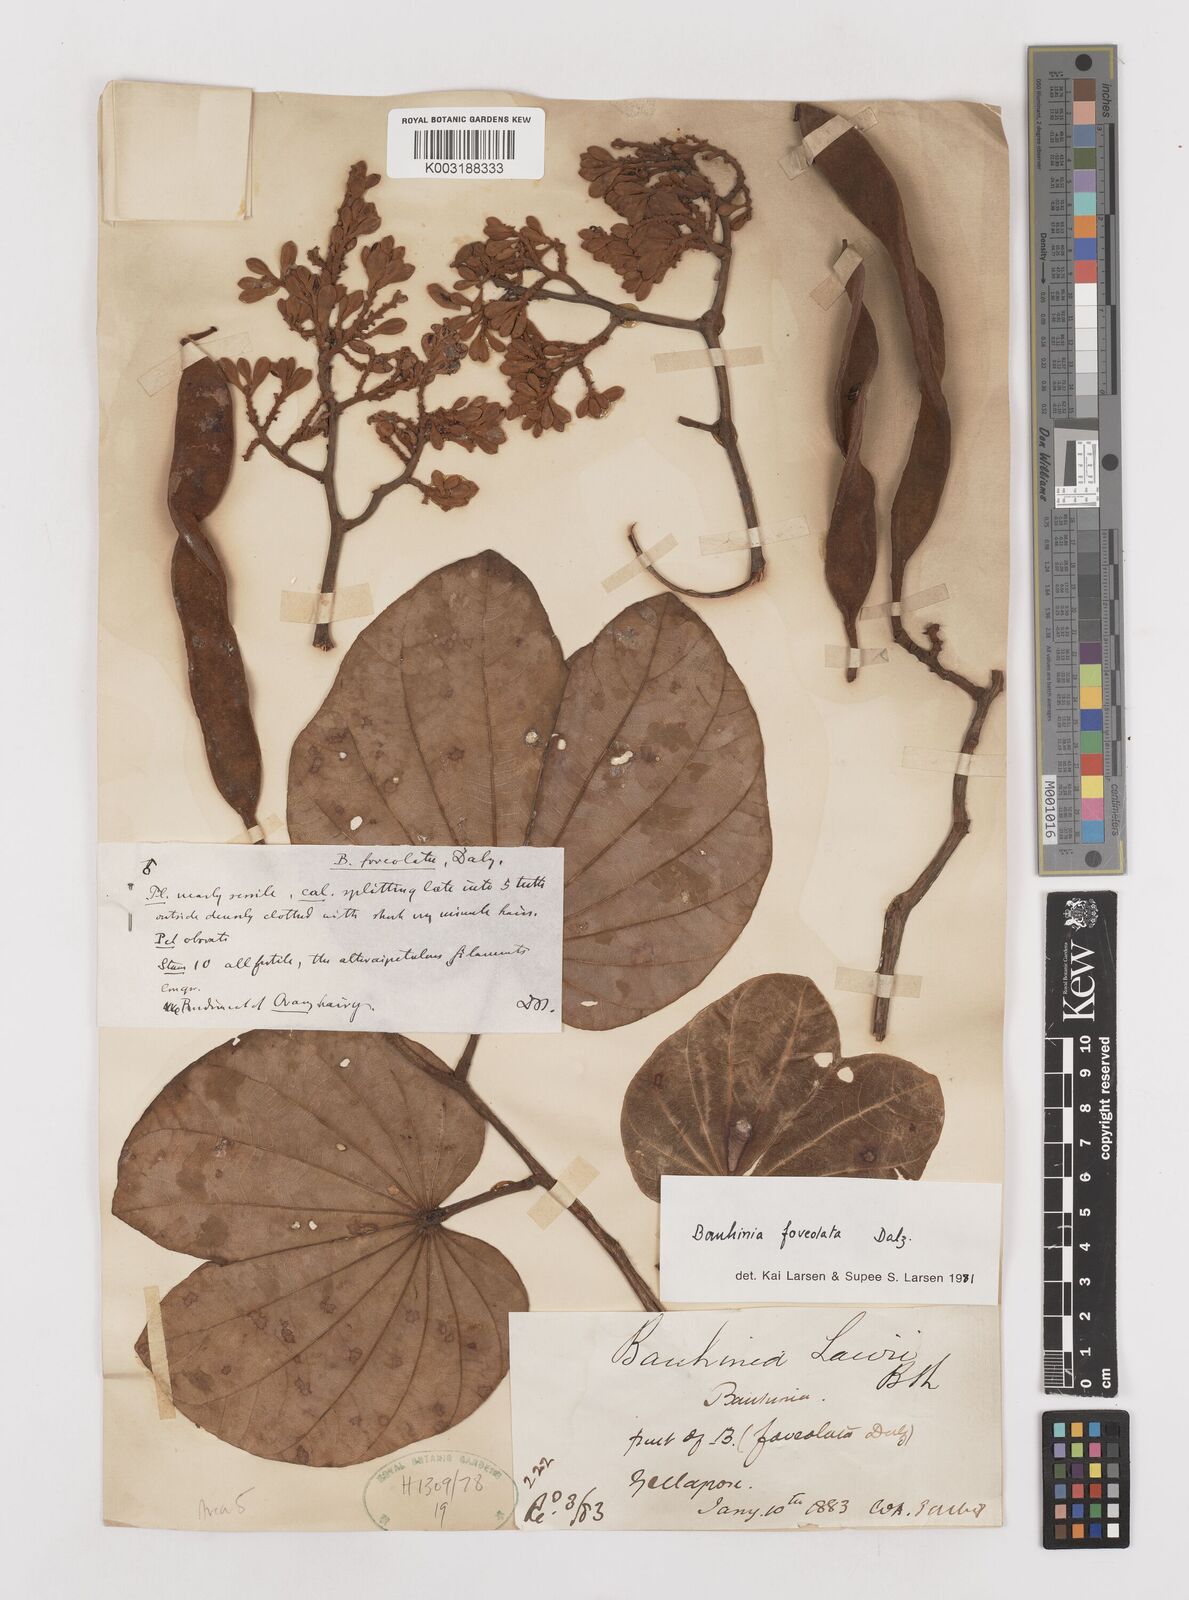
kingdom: Plantae
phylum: Tracheophyta
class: Magnoliopsida
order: Fabales
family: Fabaceae
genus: Piliostigma
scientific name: Piliostigma foveolatum
